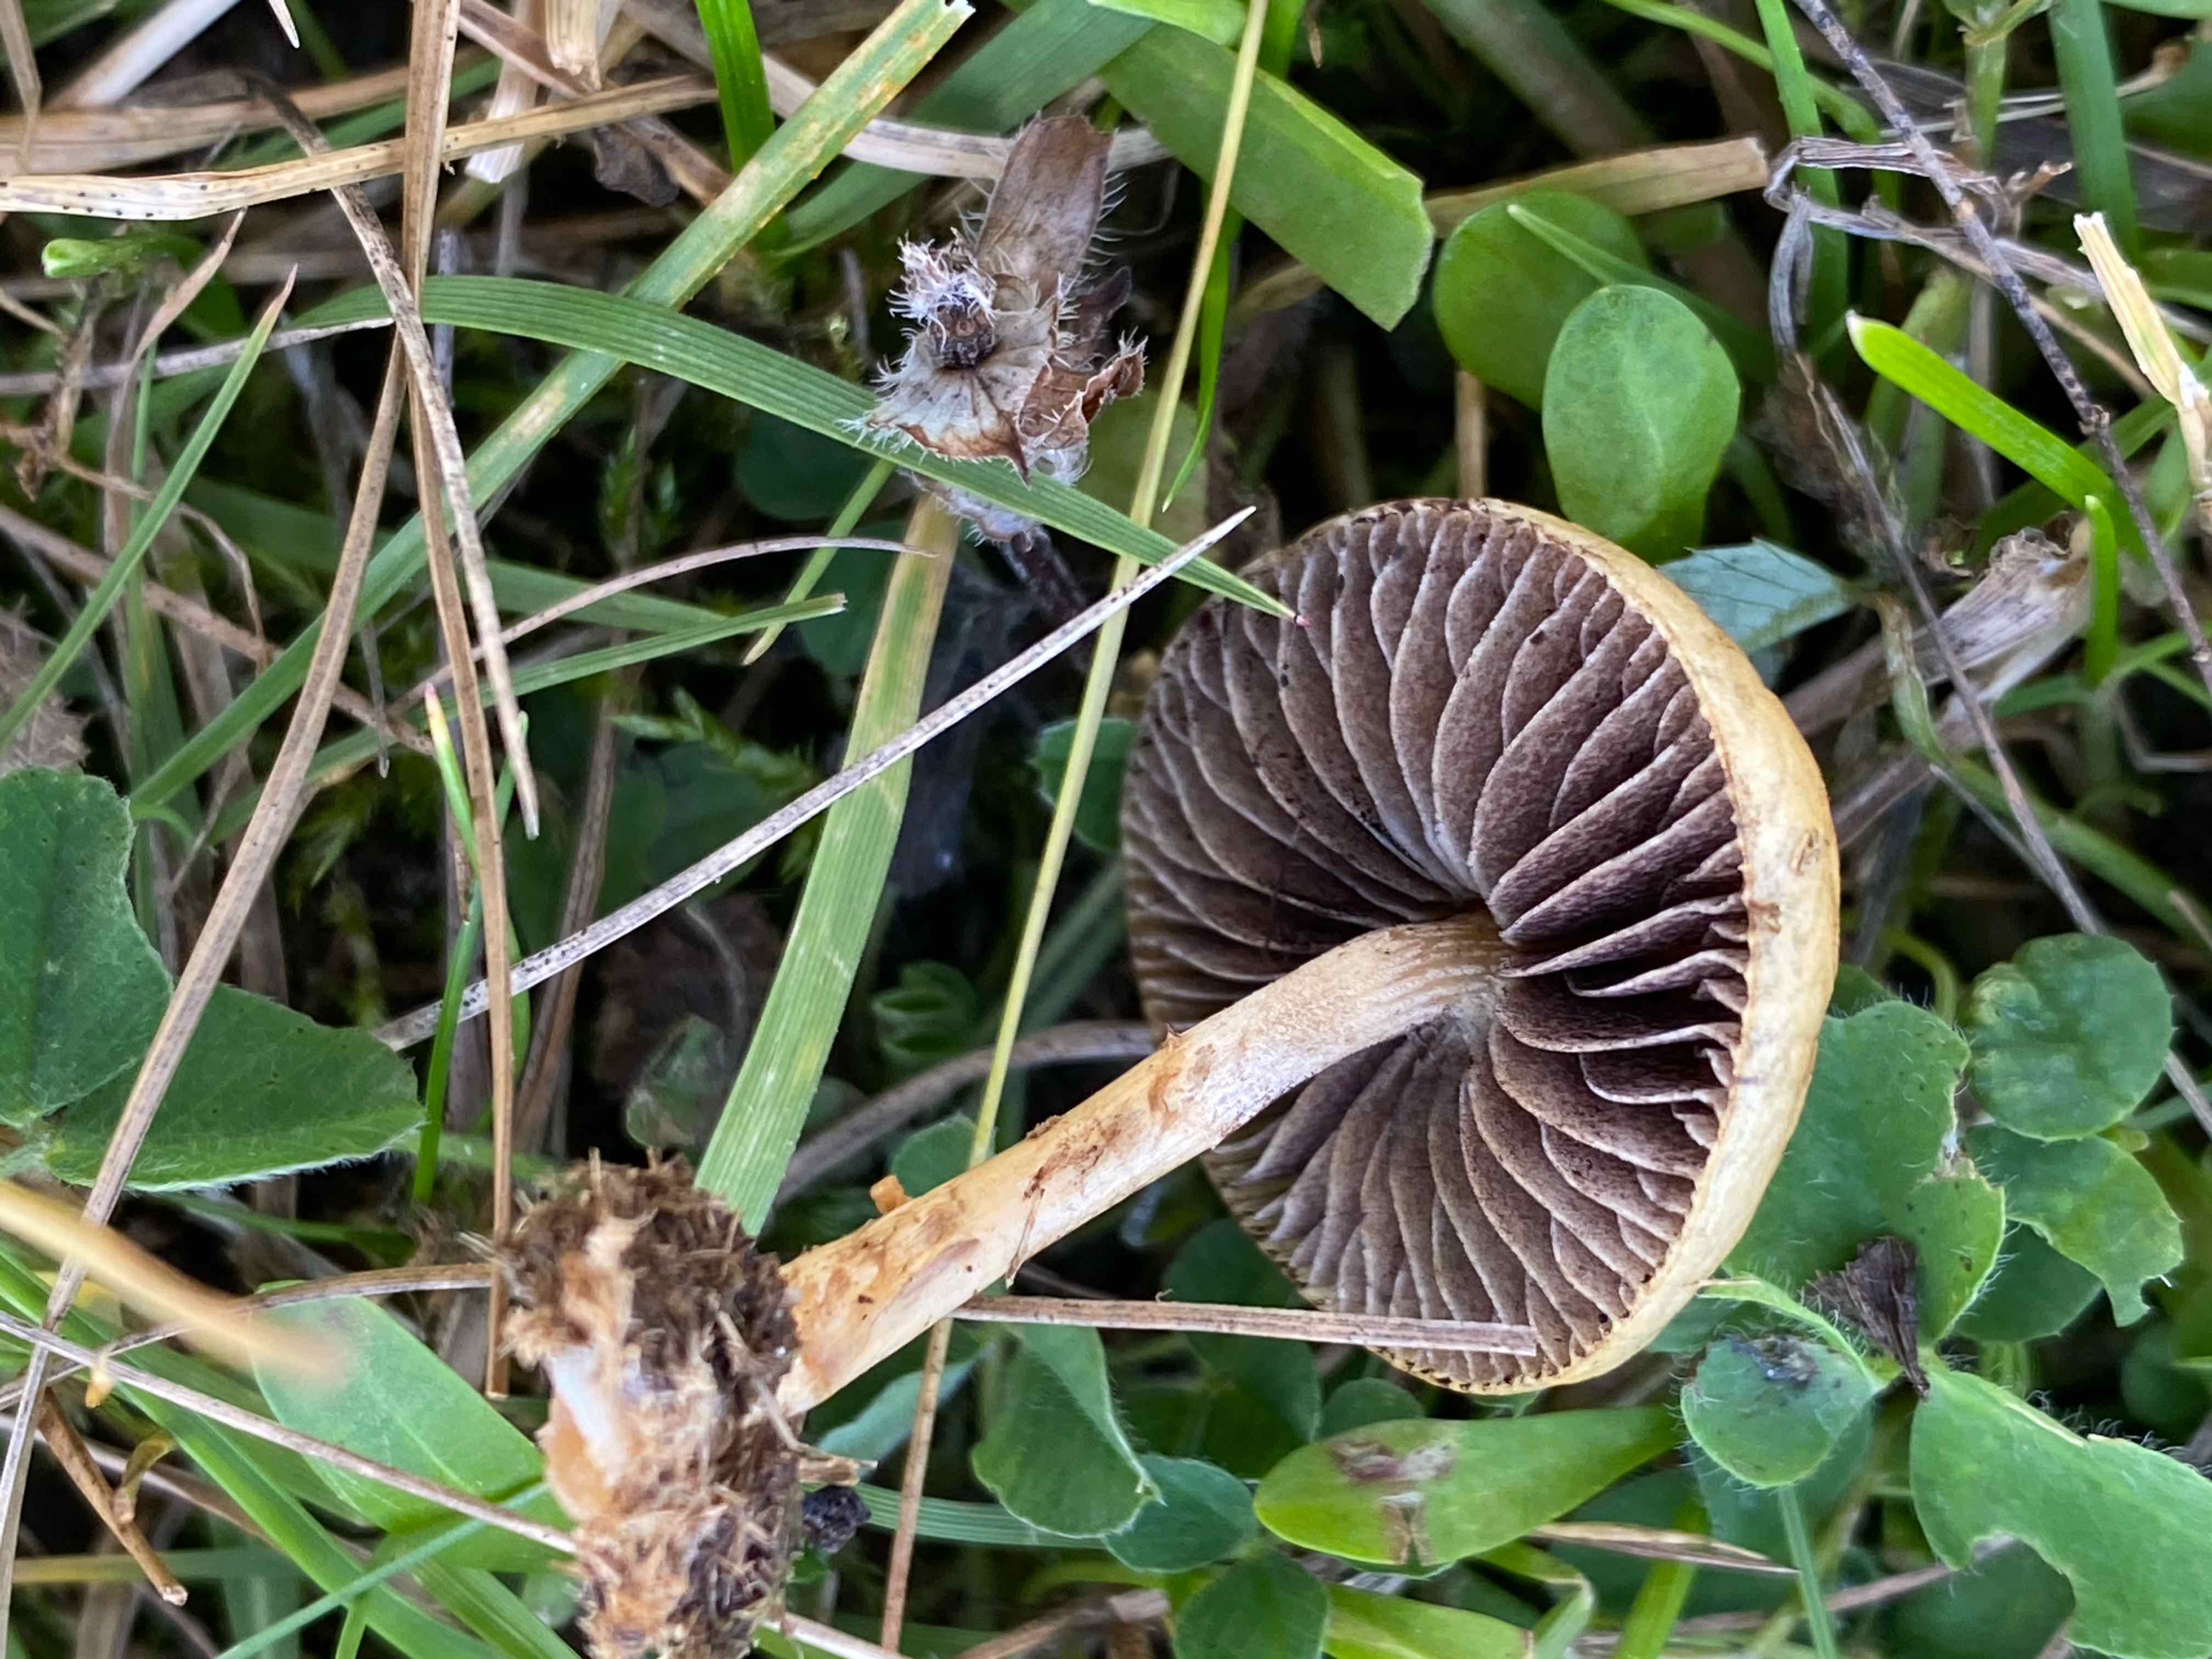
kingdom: Fungi
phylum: Basidiomycota
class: Agaricomycetes
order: Agaricales
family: Bolbitiaceae
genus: Panaeolus
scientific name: Panaeolus
